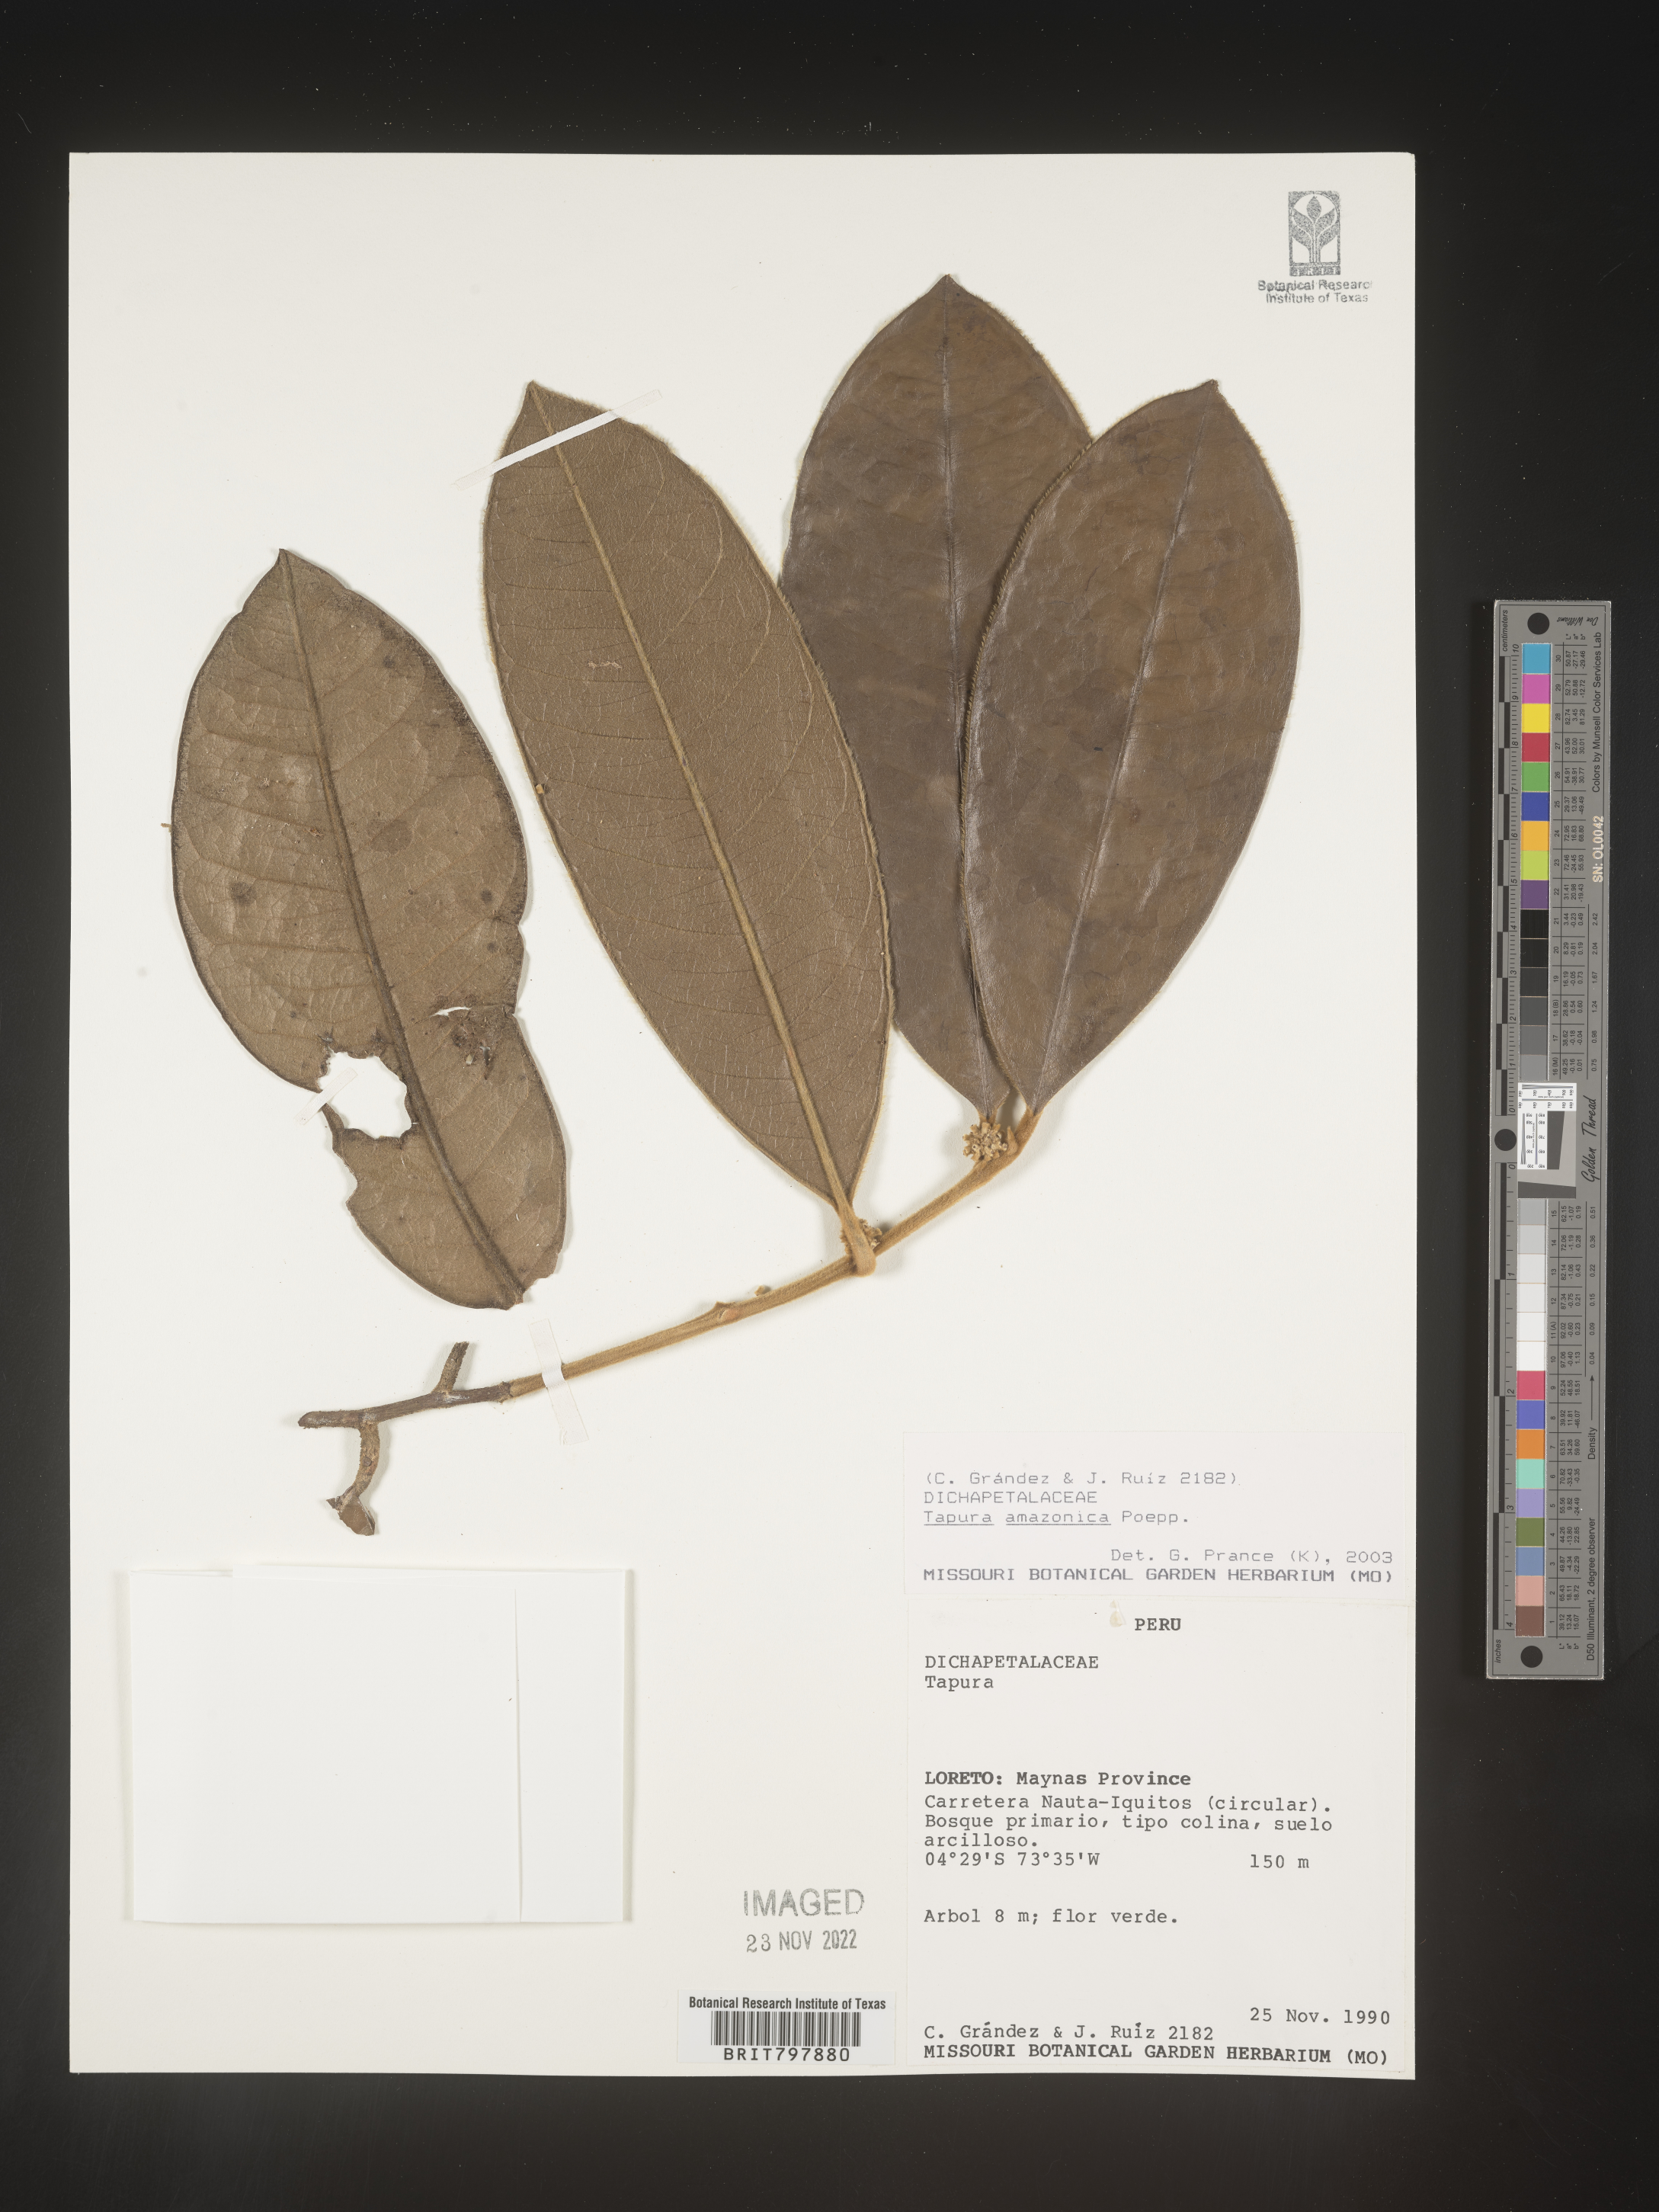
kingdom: Plantae
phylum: Tracheophyta
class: Magnoliopsida
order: Malpighiales
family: Dichapetalaceae
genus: Tapura
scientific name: Tapura
